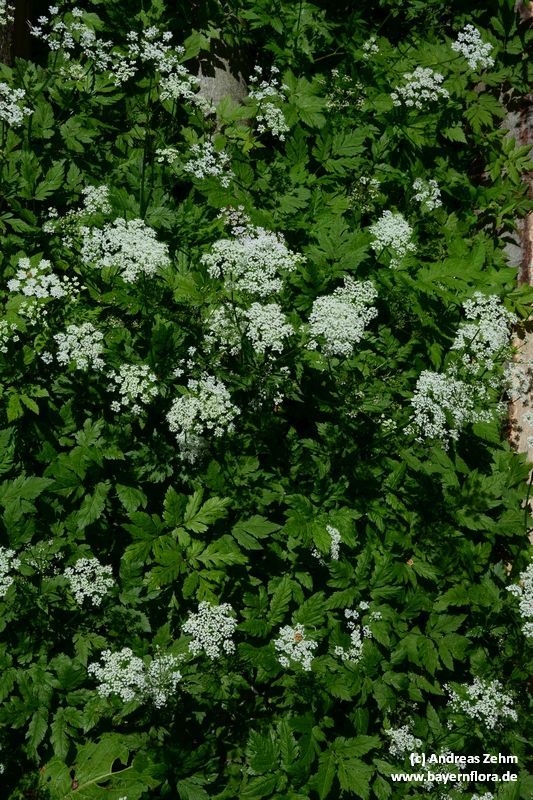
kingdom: Plantae
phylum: Tracheophyta
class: Magnoliopsida
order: Apiales
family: Apiaceae
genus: Chaerophyllum
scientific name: Chaerophyllum hirsutum
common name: Hairy chervil
